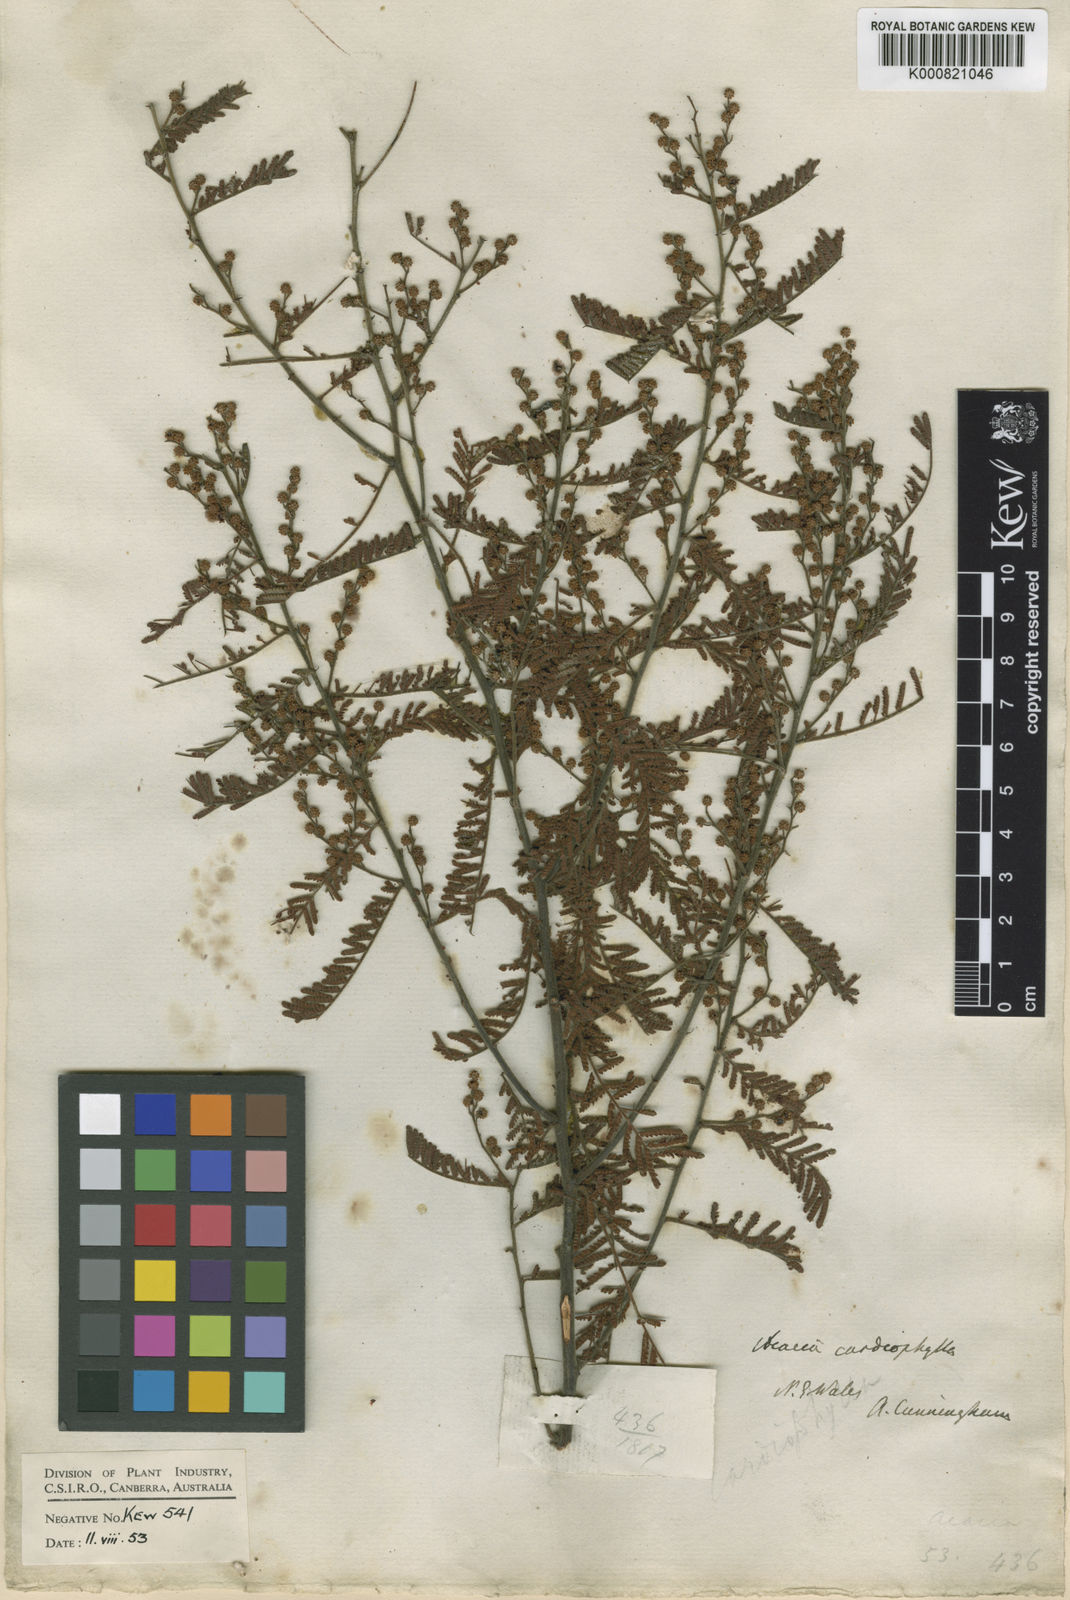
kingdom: Plantae
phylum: Tracheophyta
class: Magnoliopsida
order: Fabales
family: Fabaceae
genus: Acacia
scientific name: Acacia cardiophylla
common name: Wyalong wattle
